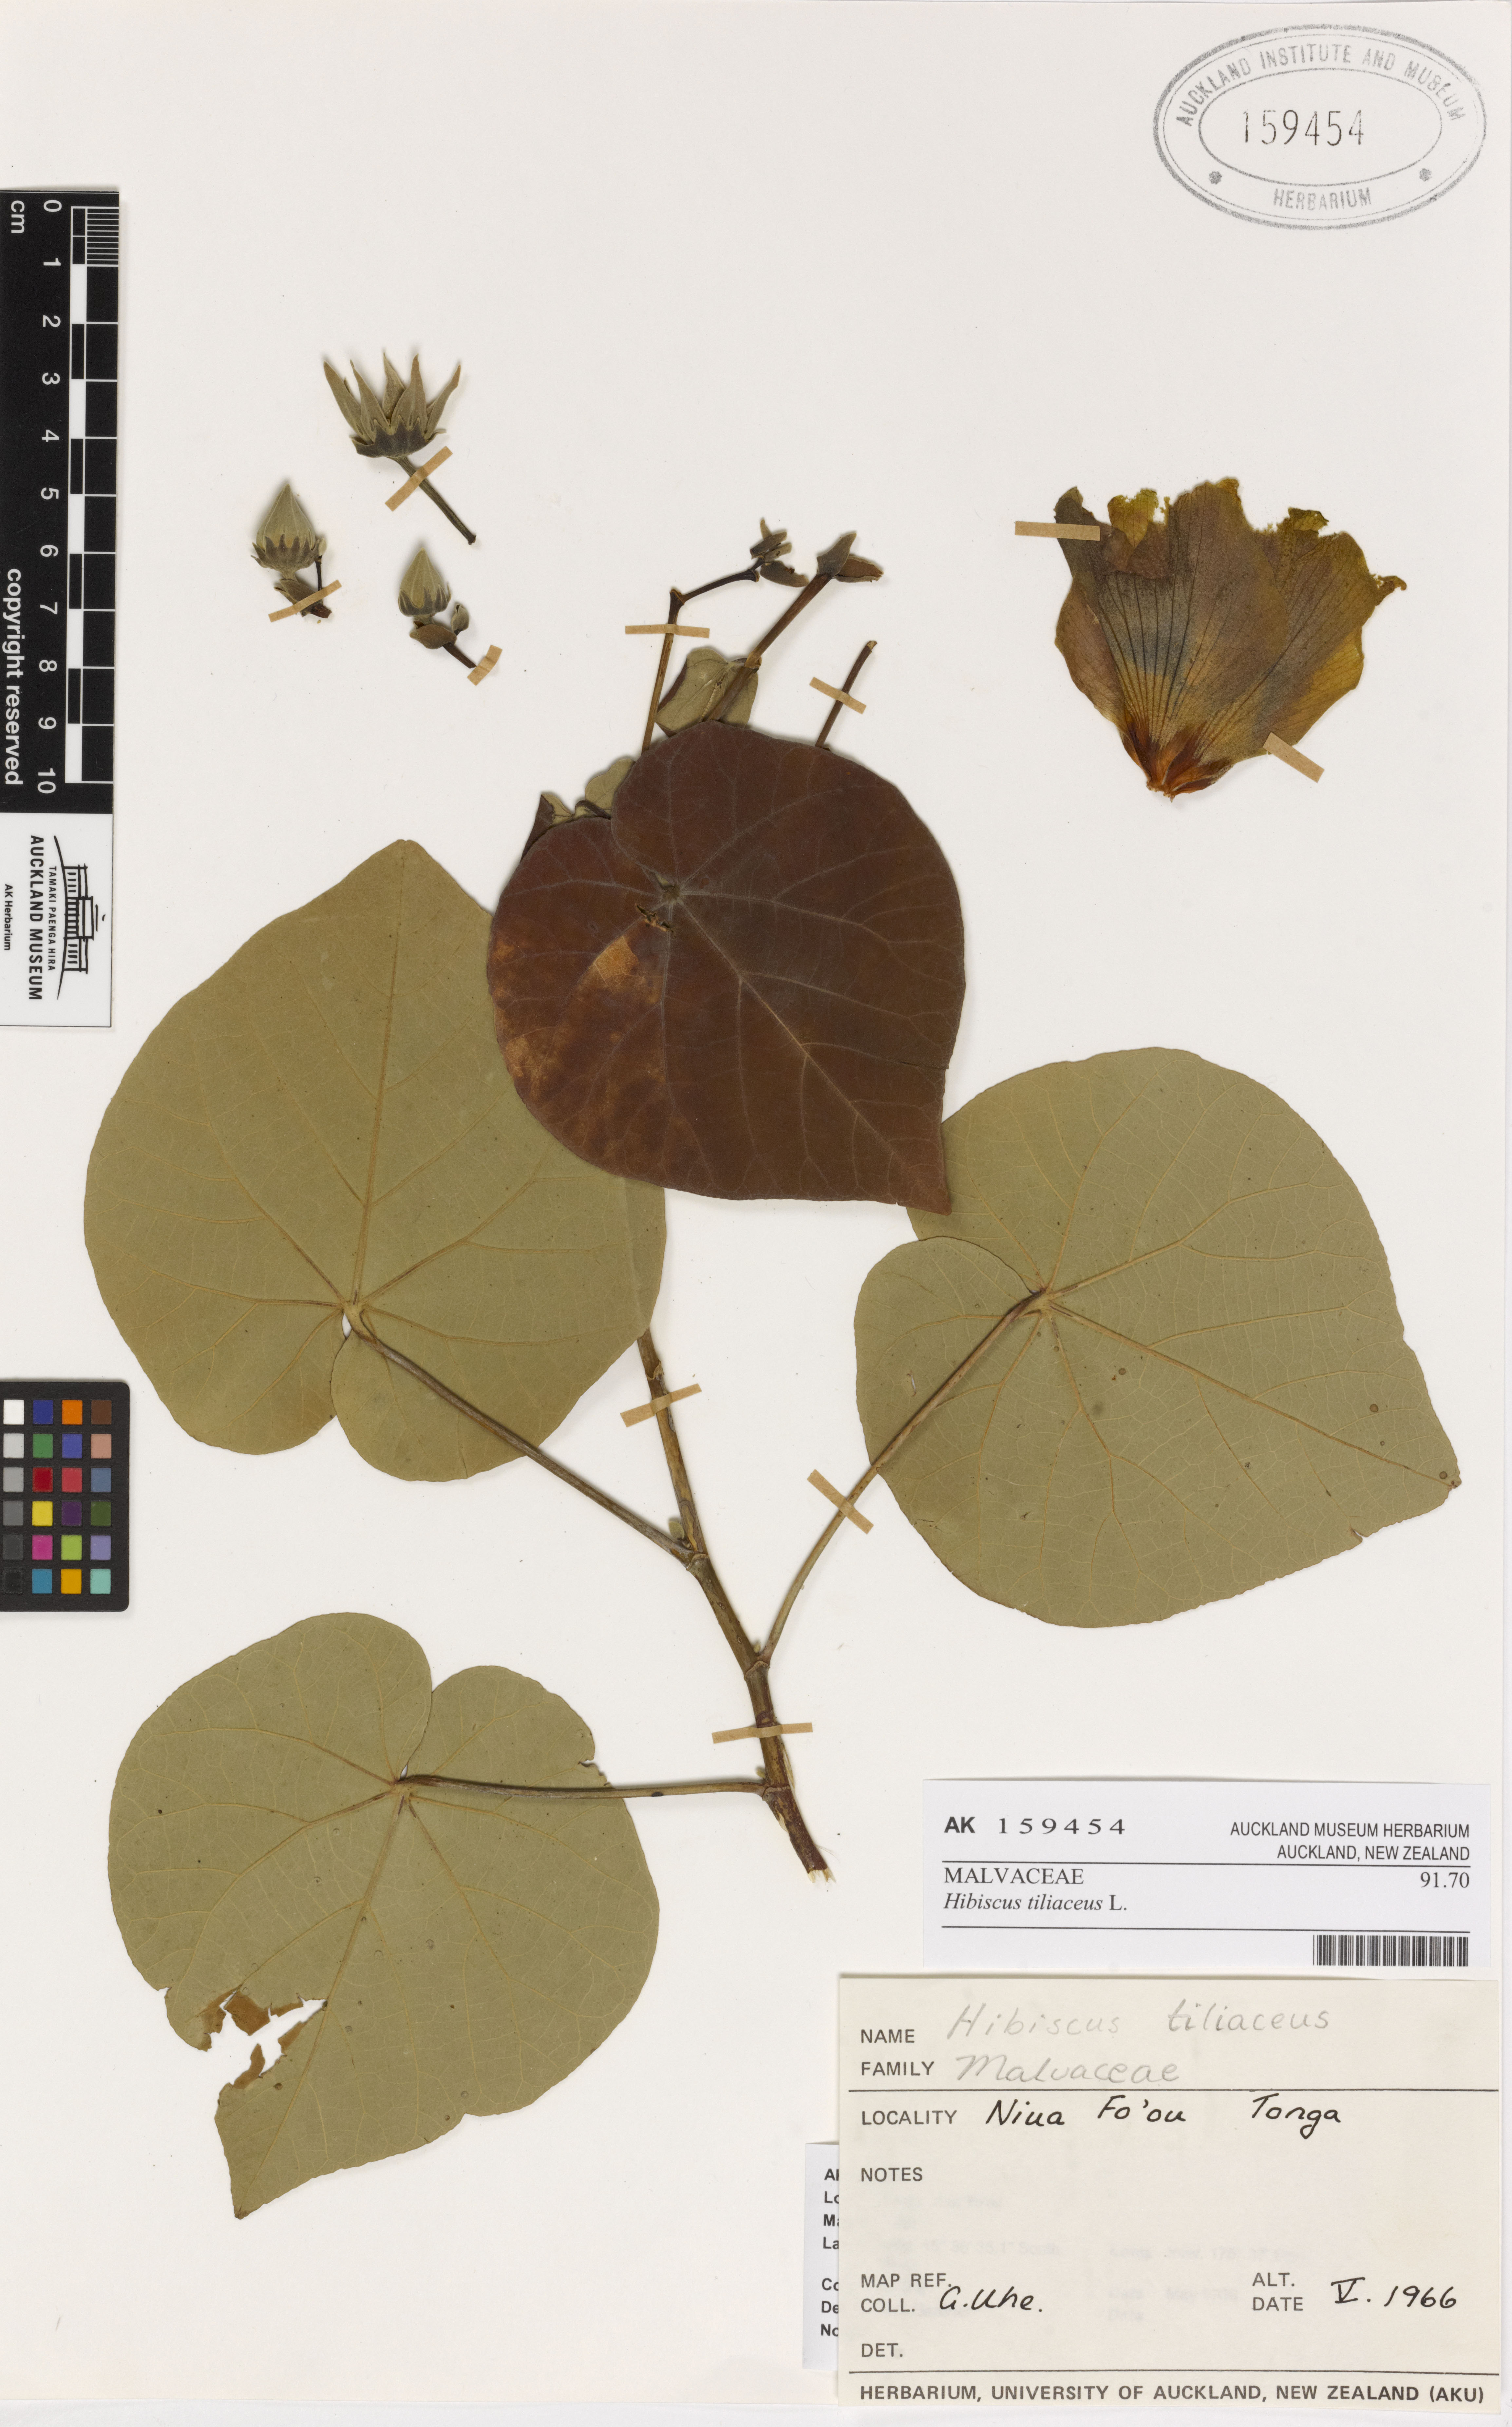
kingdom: Plantae
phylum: Tracheophyta
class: Magnoliopsida
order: Malvales
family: Malvaceae
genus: Talipariti
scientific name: Talipariti tiliaceum
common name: Sea hibiscus
